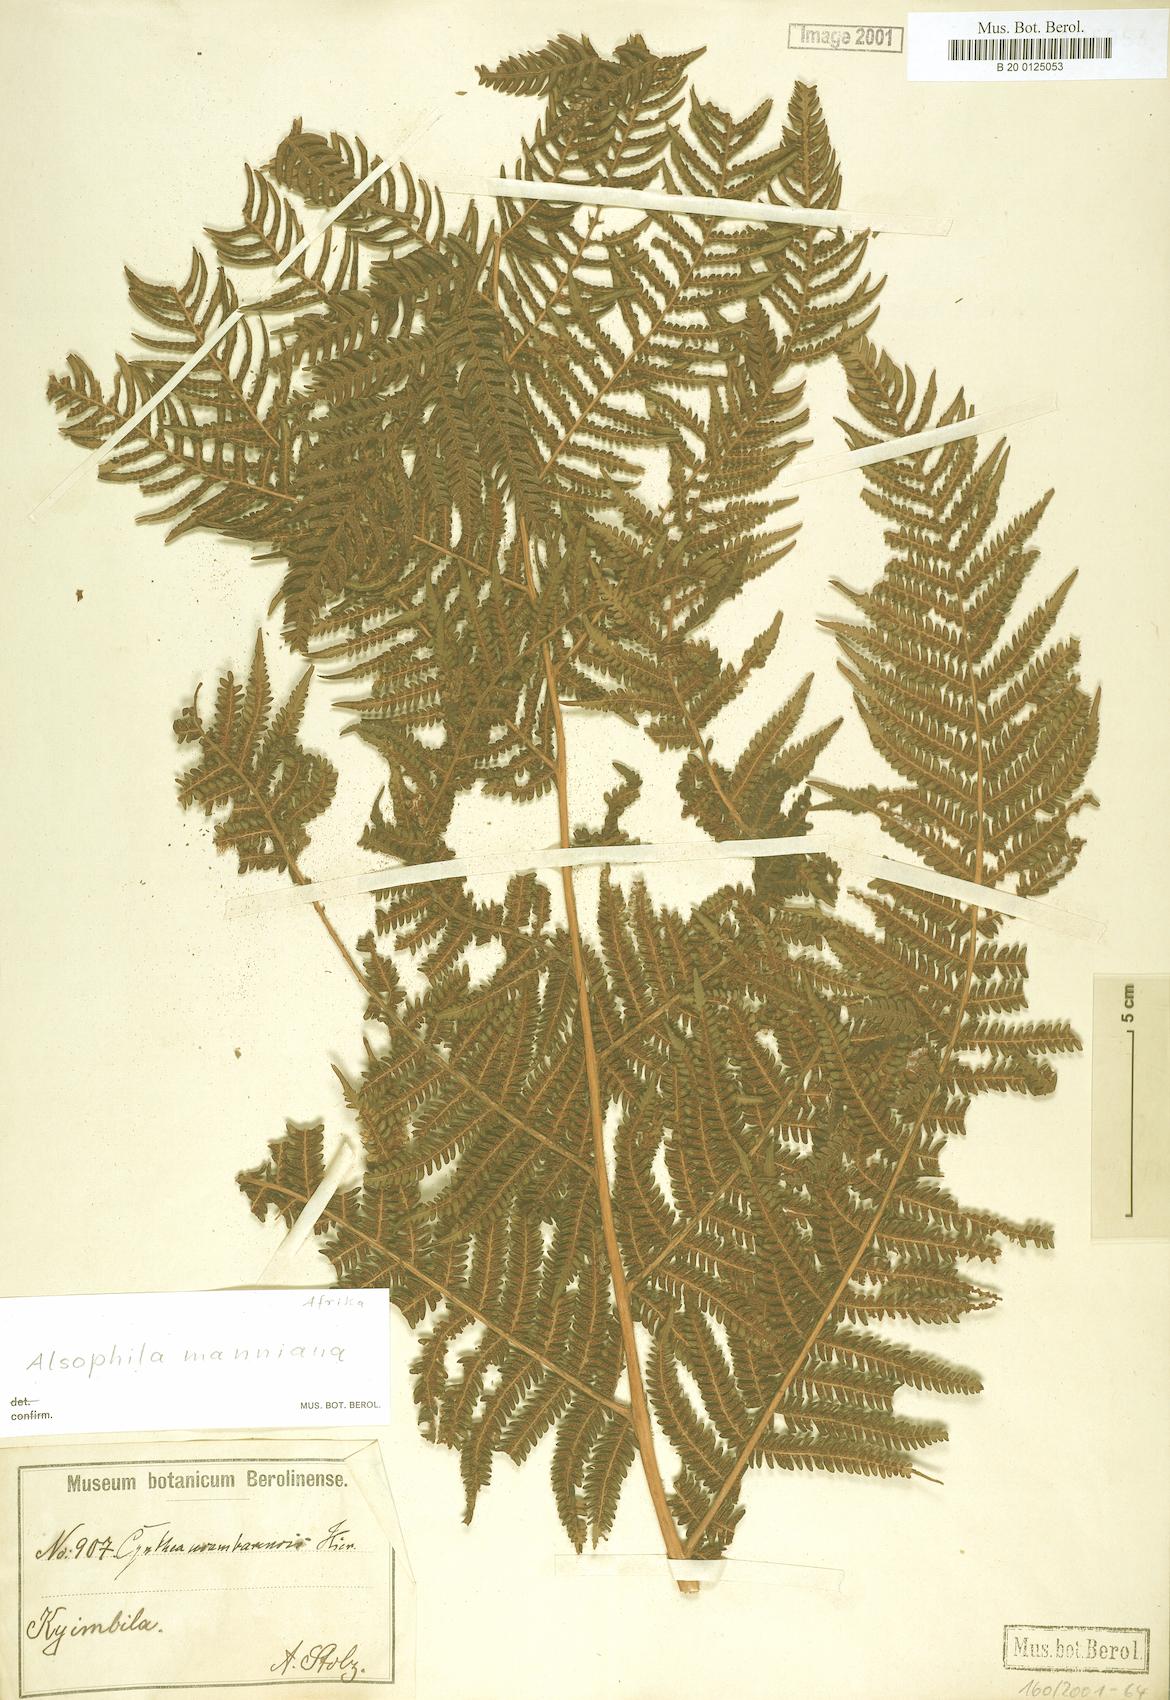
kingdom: Plantae
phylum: Tracheophyta
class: Polypodiopsida
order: Cyatheales
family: Cyatheaceae
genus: Alsophila
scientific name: Alsophila manniana
